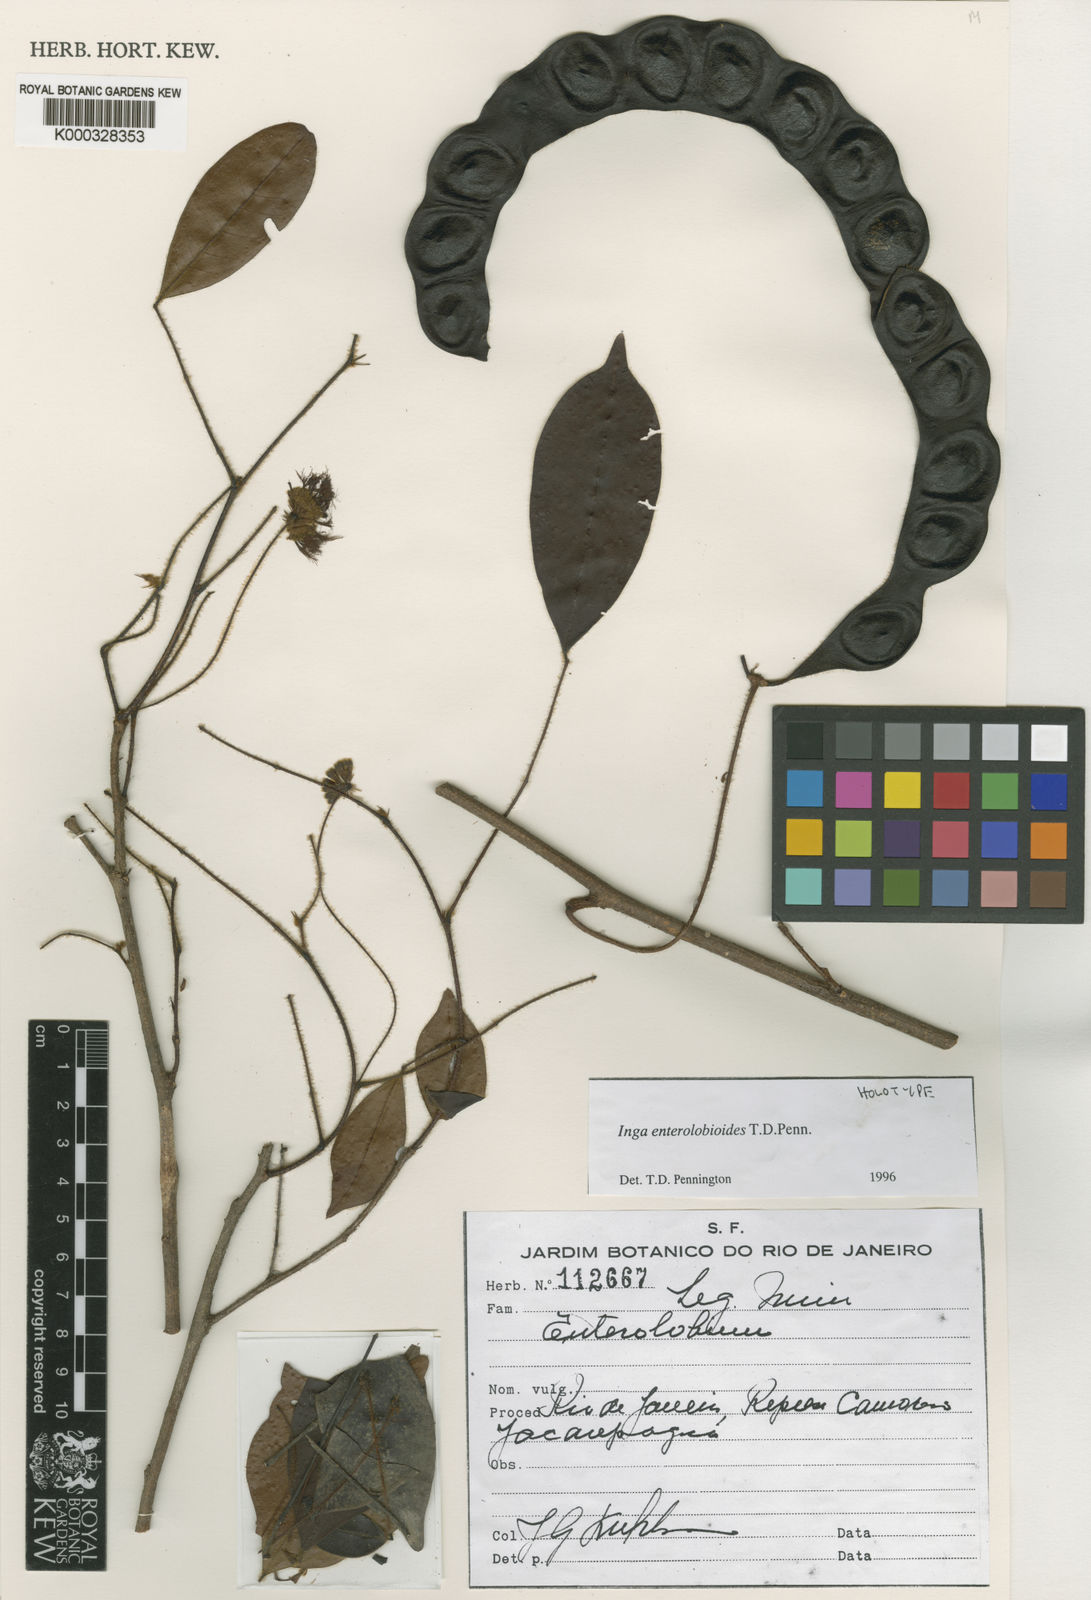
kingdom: Plantae
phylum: Tracheophyta
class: Magnoliopsida
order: Fabales
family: Fabaceae
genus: Inga
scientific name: Inga enterolobioides
